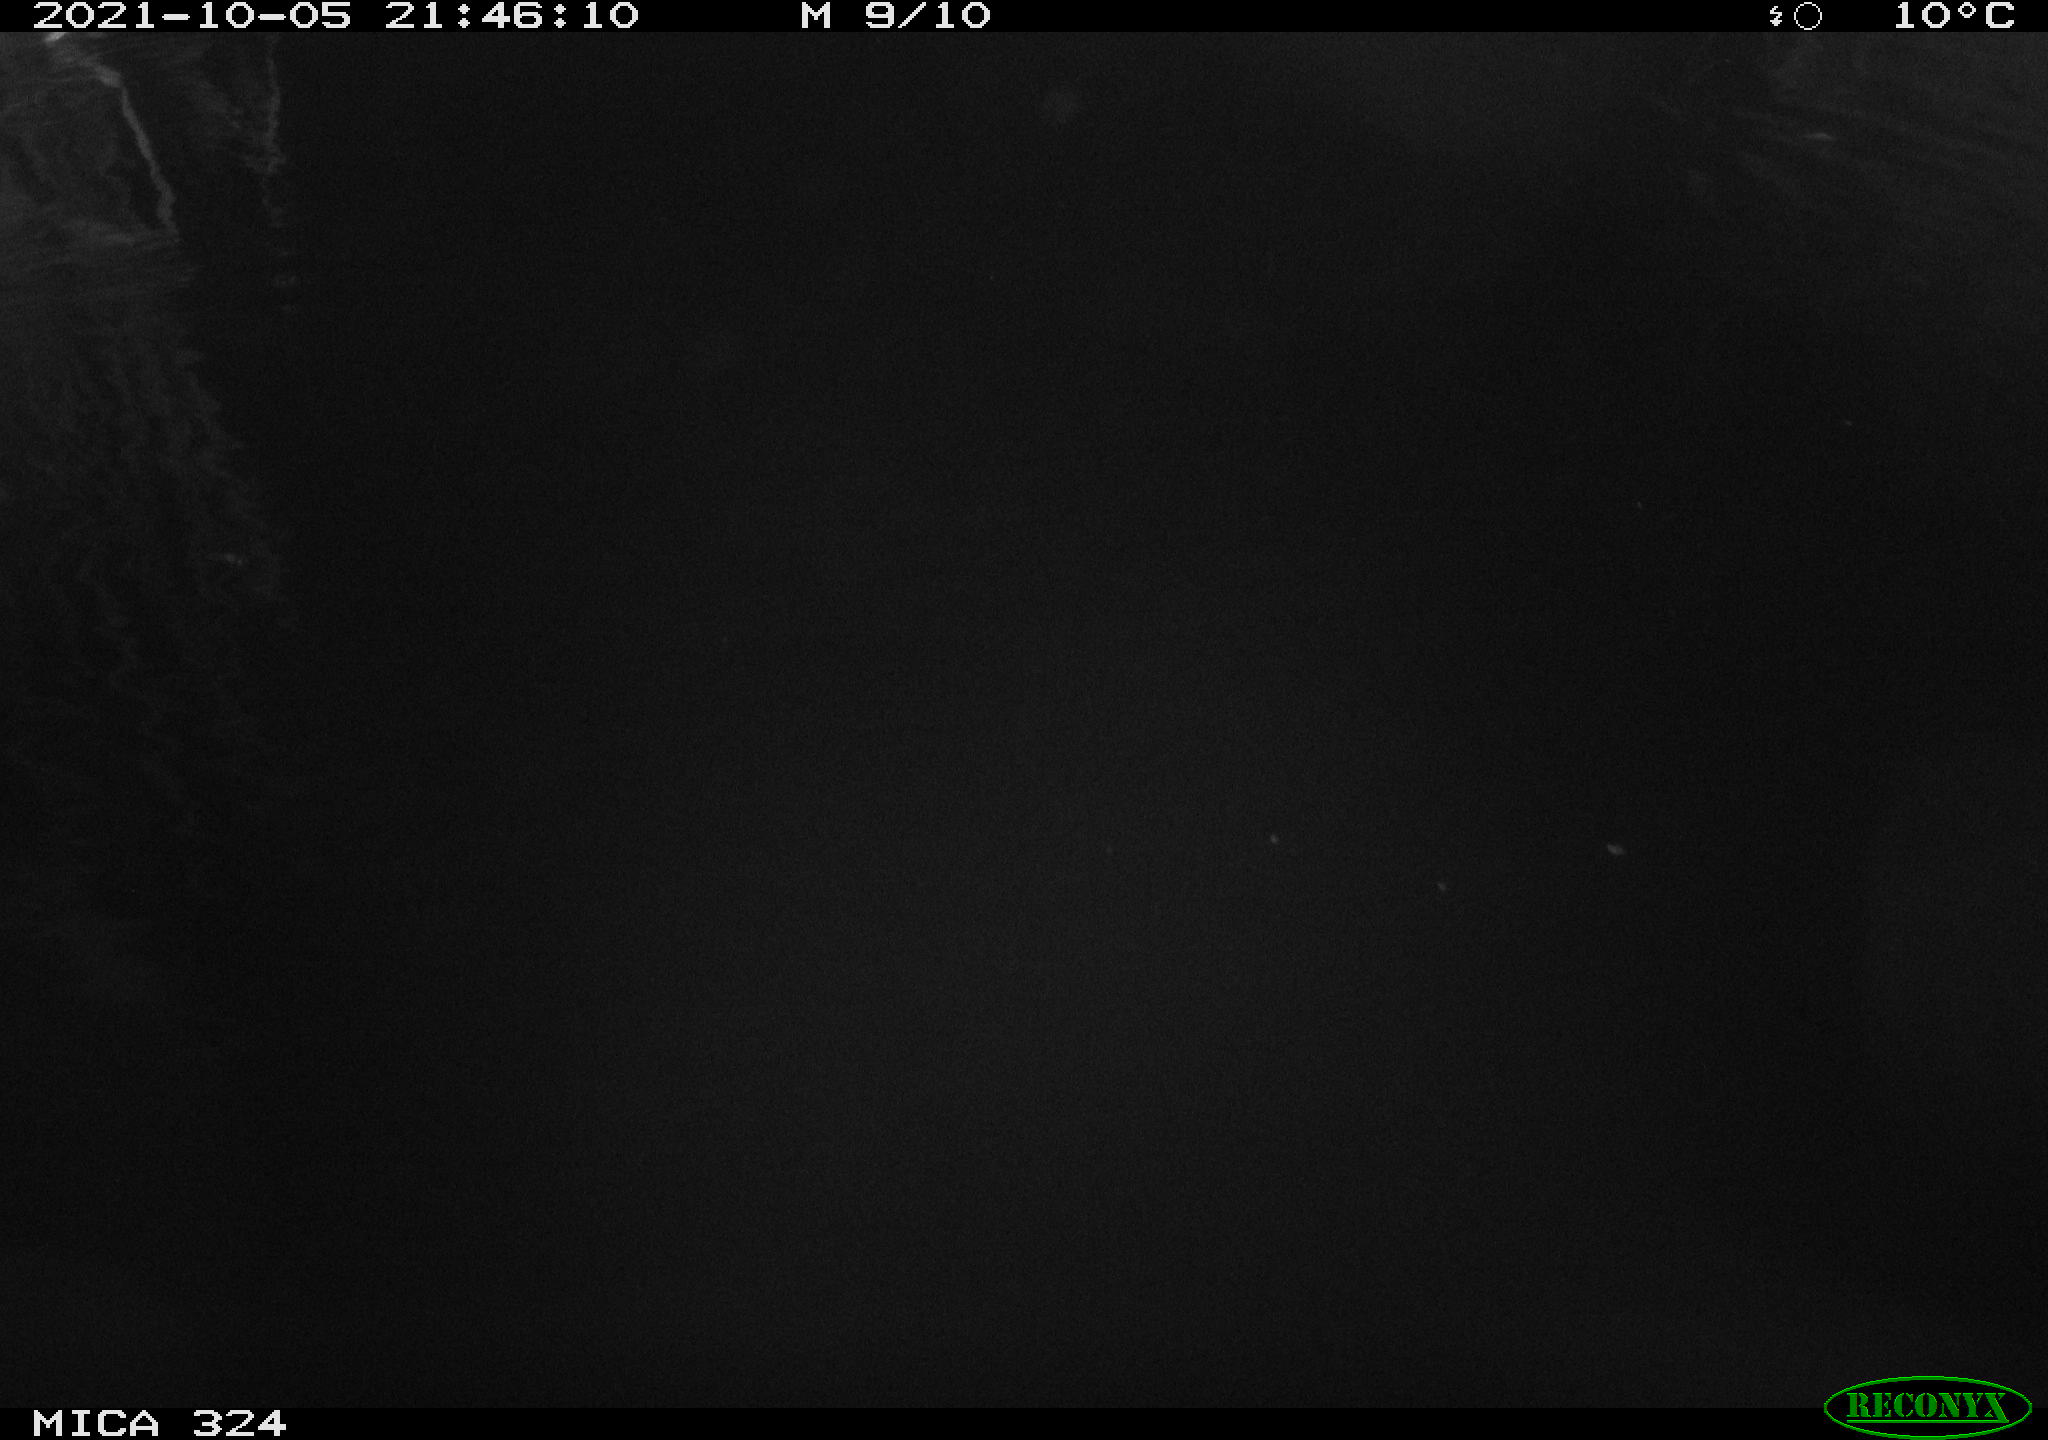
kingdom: Animalia
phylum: Chordata
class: Mammalia
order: Rodentia
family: Cricetidae
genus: Ondatra
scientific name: Ondatra zibethicus
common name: Muskrat
